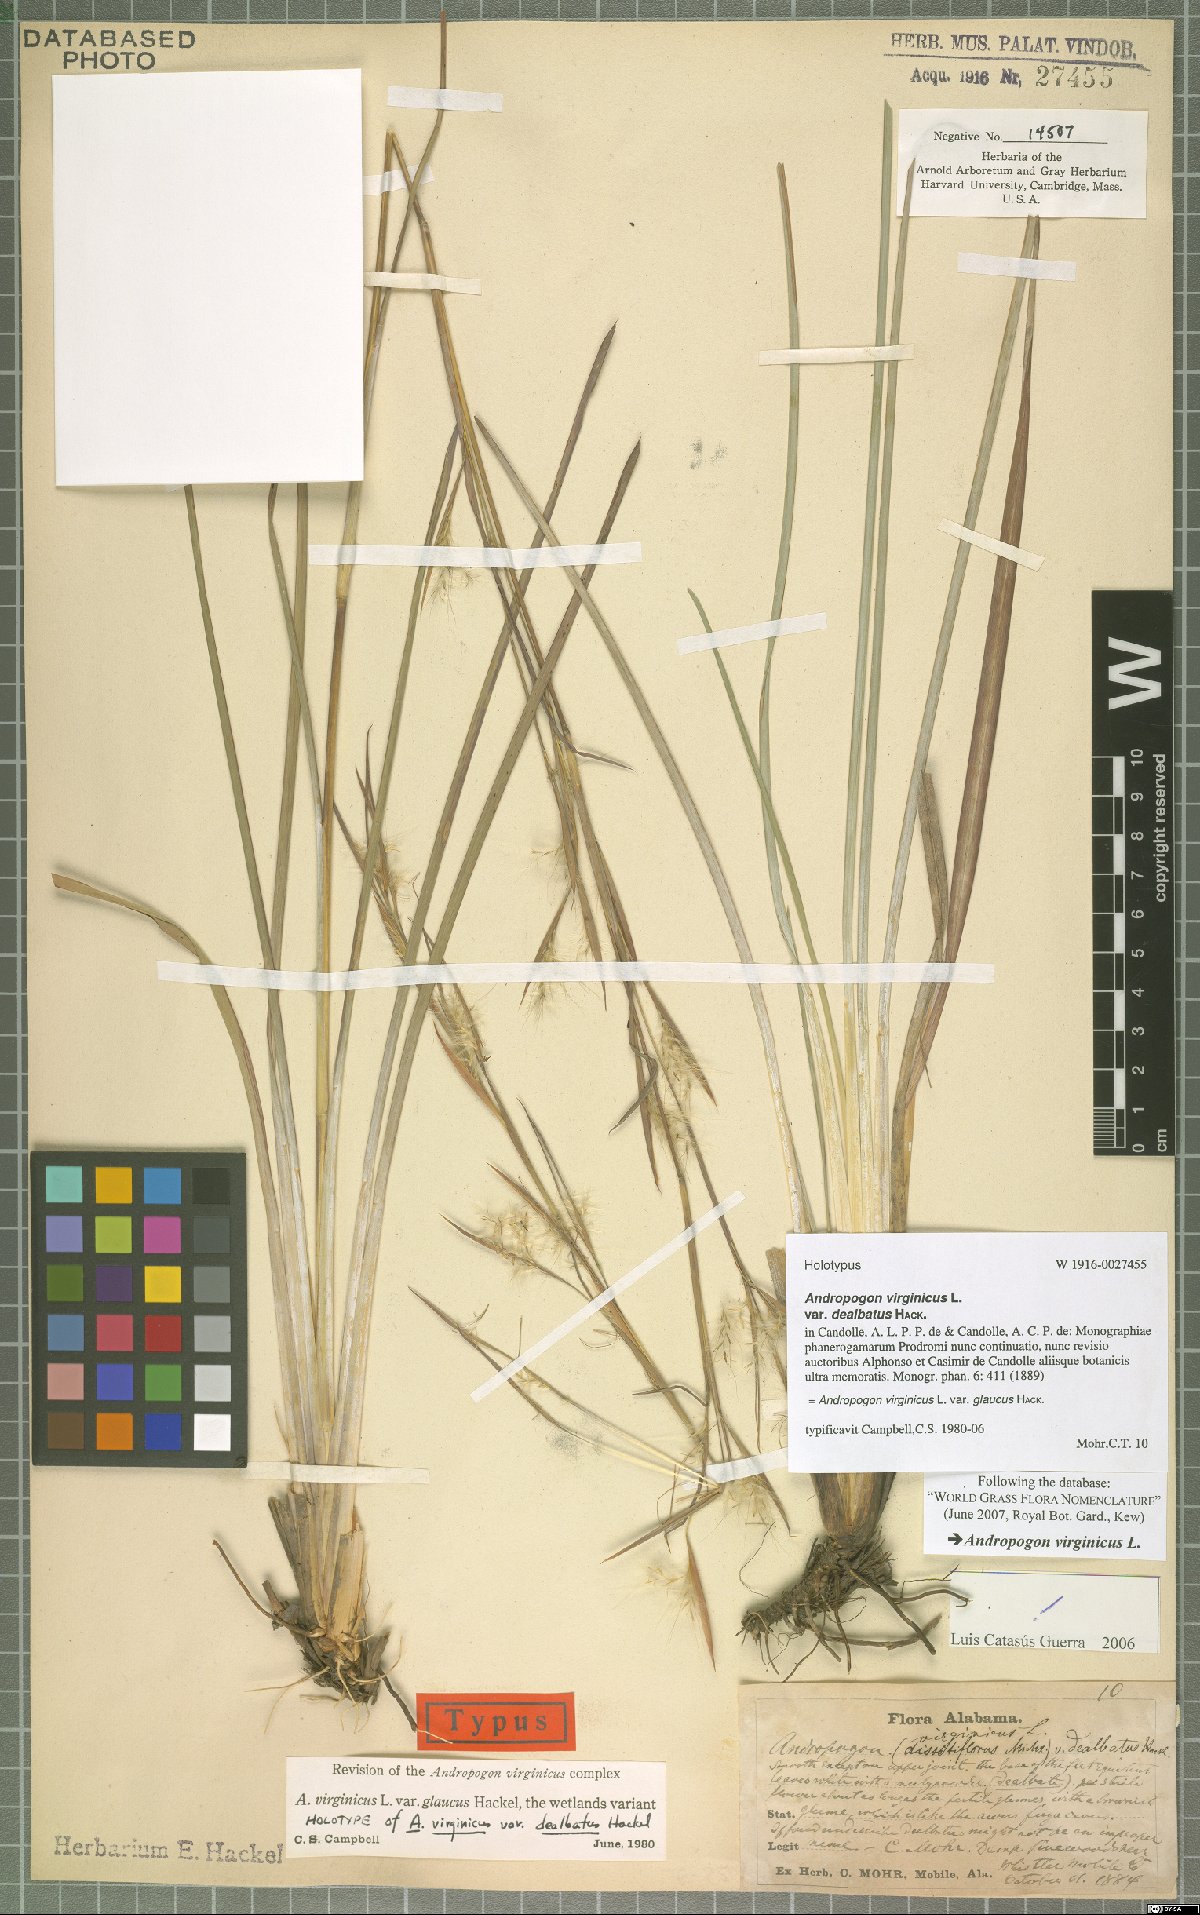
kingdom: Plantae
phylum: Tracheophyta
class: Liliopsida
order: Poales
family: Poaceae
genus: Andropogon
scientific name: Andropogon capillipes
